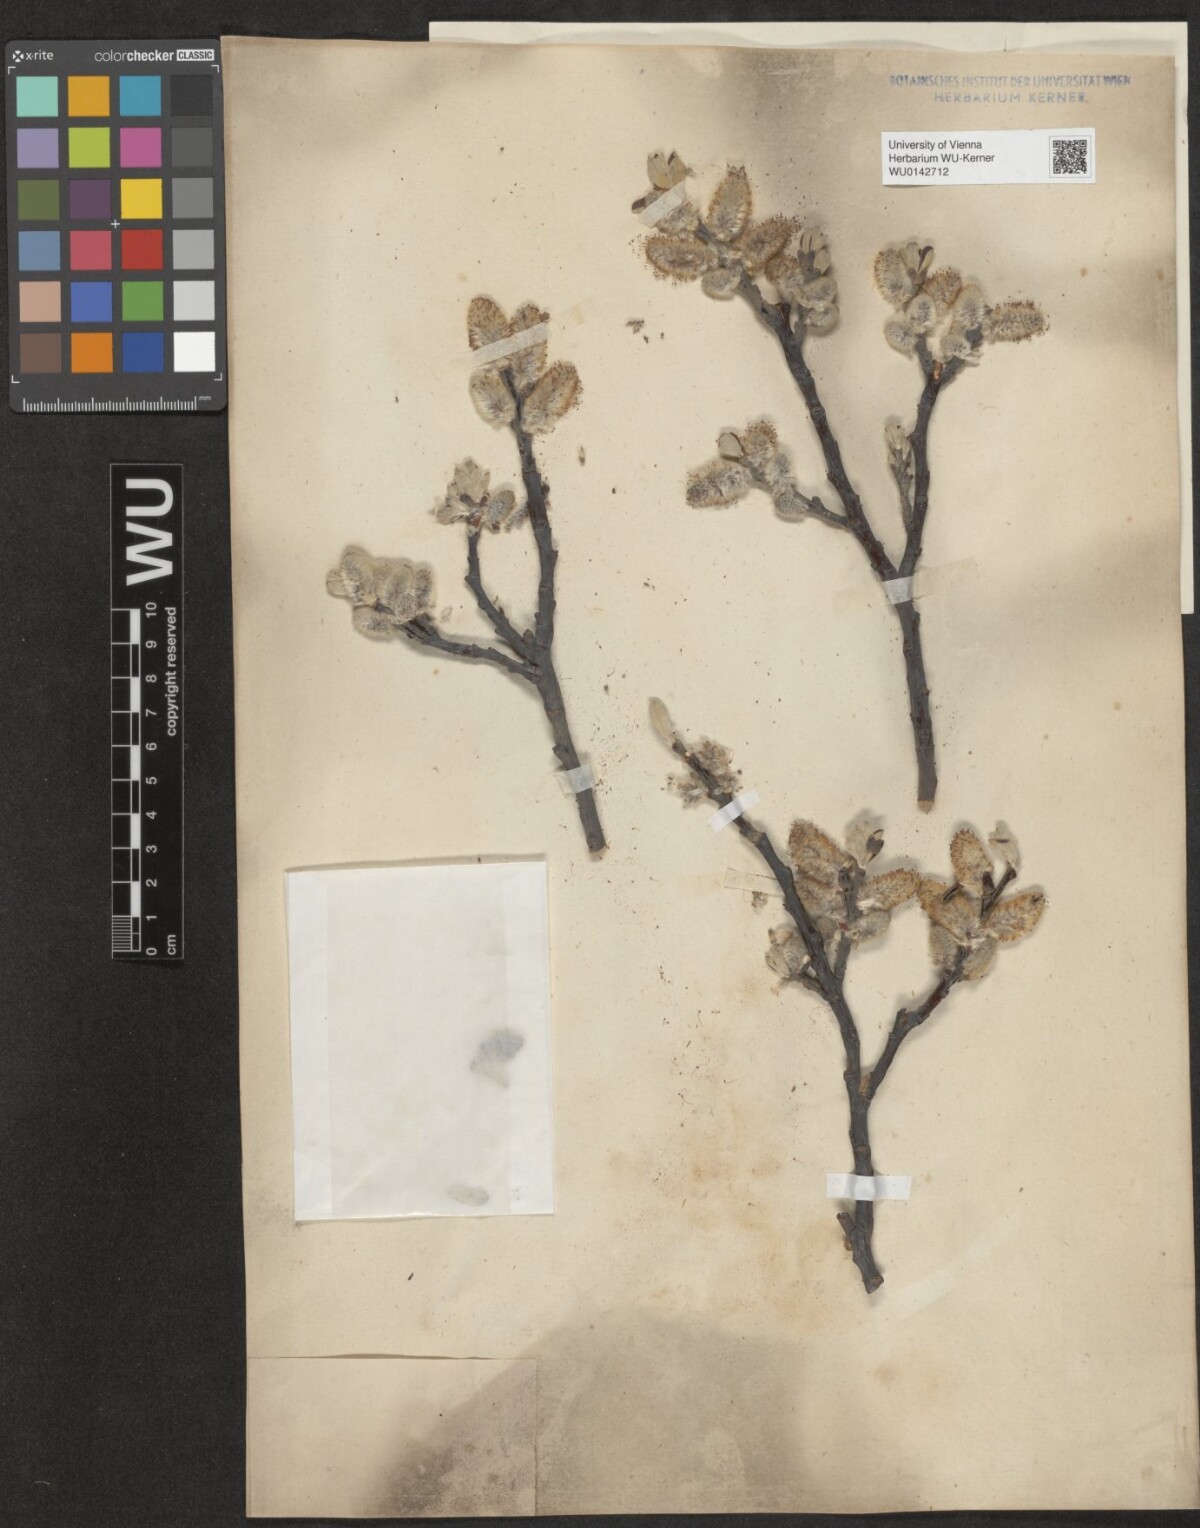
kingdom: Plantae
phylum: Tracheophyta
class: Magnoliopsida
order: Malpighiales
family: Salicaceae
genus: Salix
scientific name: Salix helvetica
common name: Swiss willow
